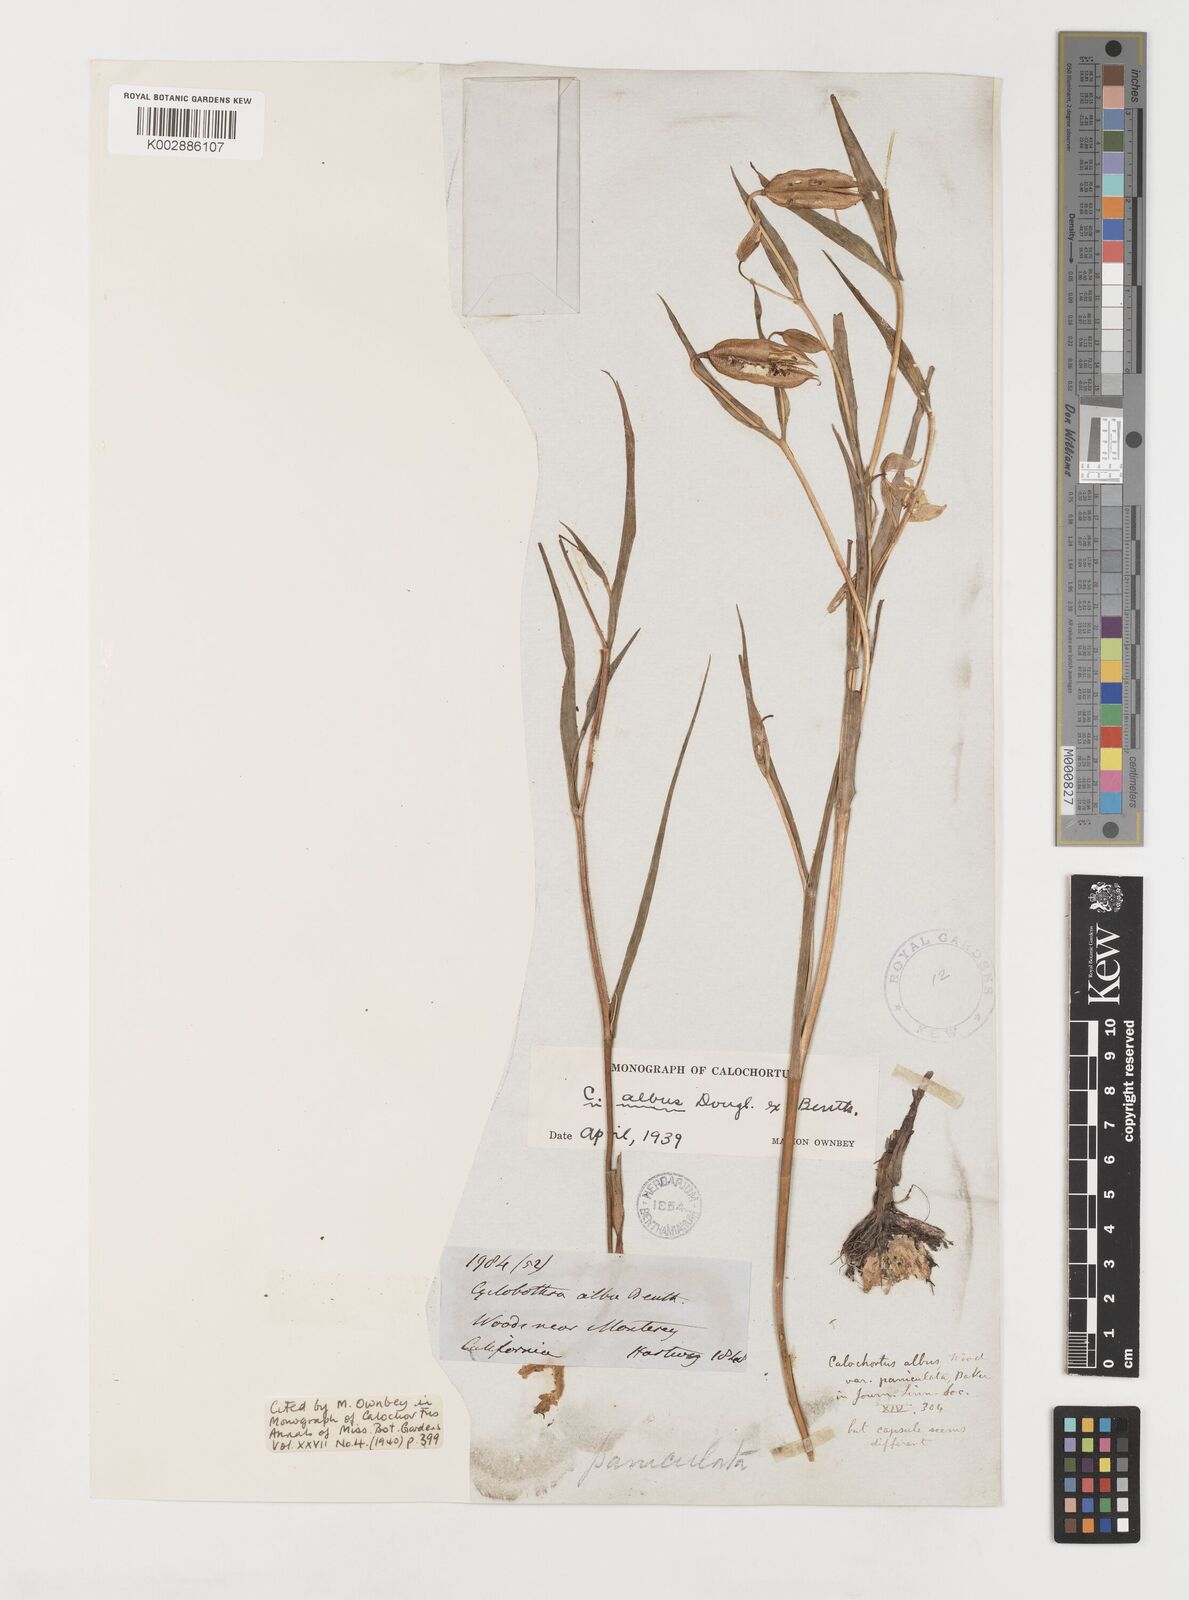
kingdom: Plantae
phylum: Tracheophyta
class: Liliopsida
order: Liliales
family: Liliaceae
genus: Calochortus
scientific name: Calochortus albus
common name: Fairy-lantern
